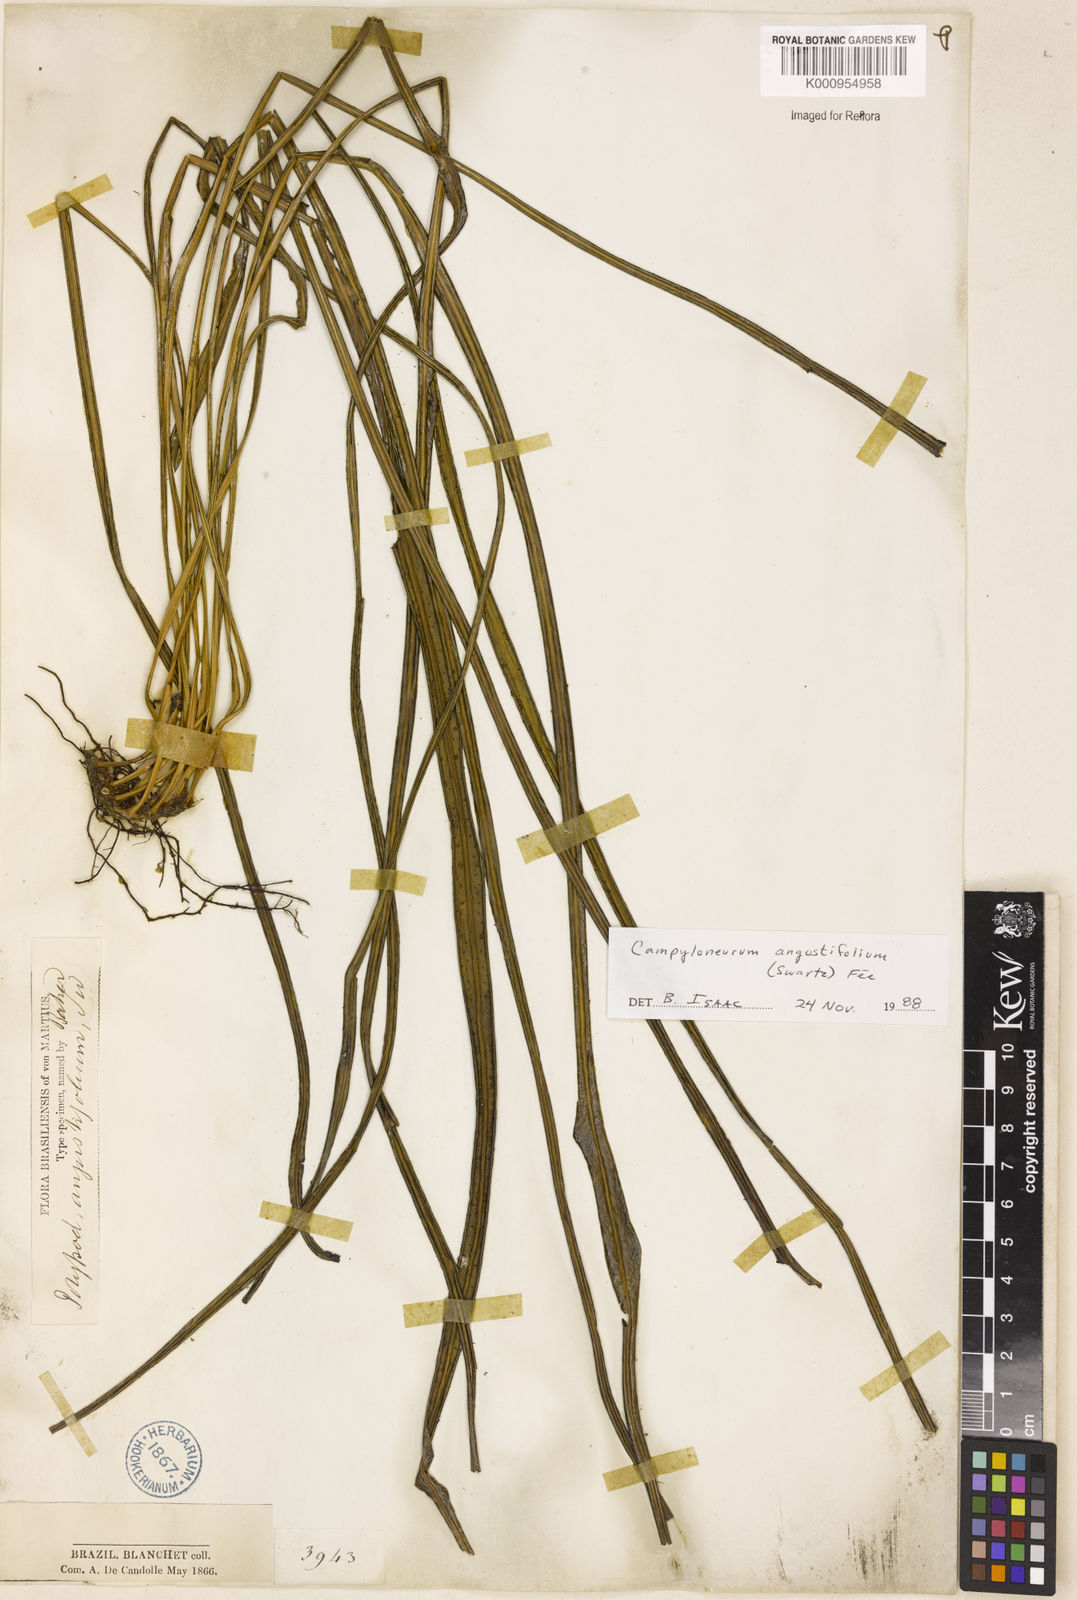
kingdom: Plantae
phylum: Tracheophyta
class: Polypodiopsida
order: Polypodiales
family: Polypodiaceae
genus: Campyloneurum
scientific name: Campyloneurum
